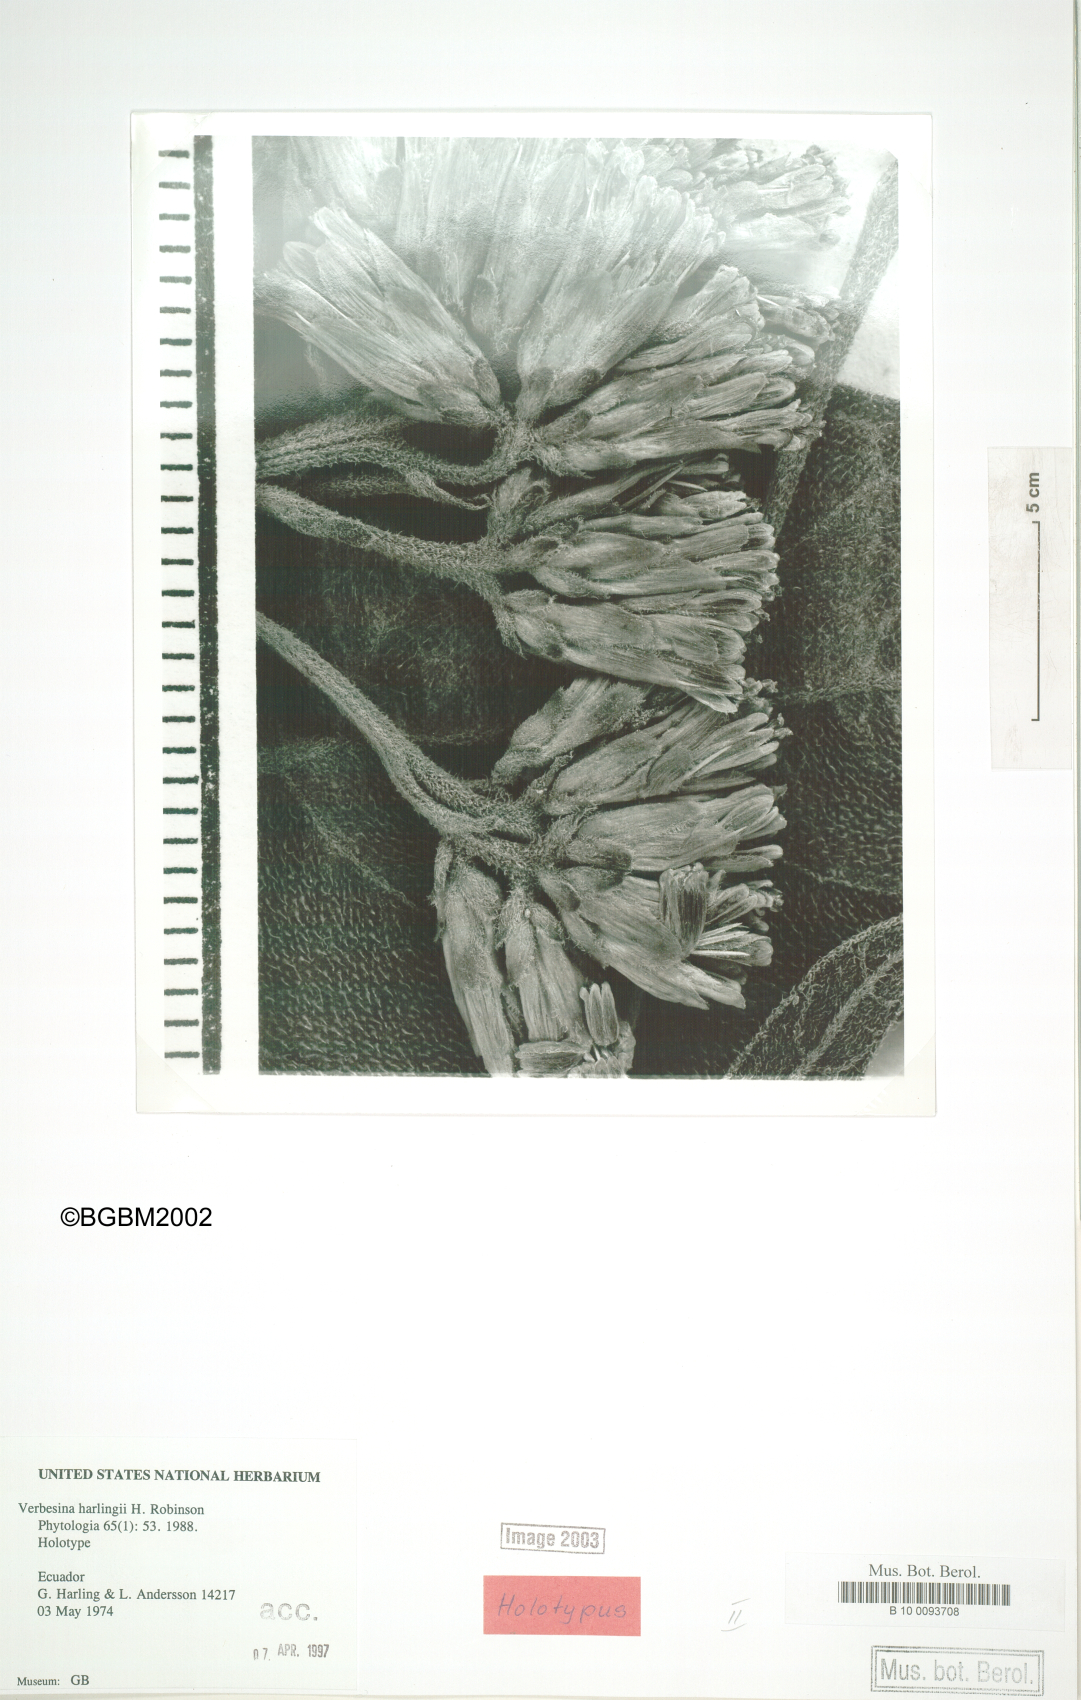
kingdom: Plantae
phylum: Tracheophyta
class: Magnoliopsida
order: Asterales
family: Asteraceae
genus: Verbesina
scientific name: Verbesina harlingii
